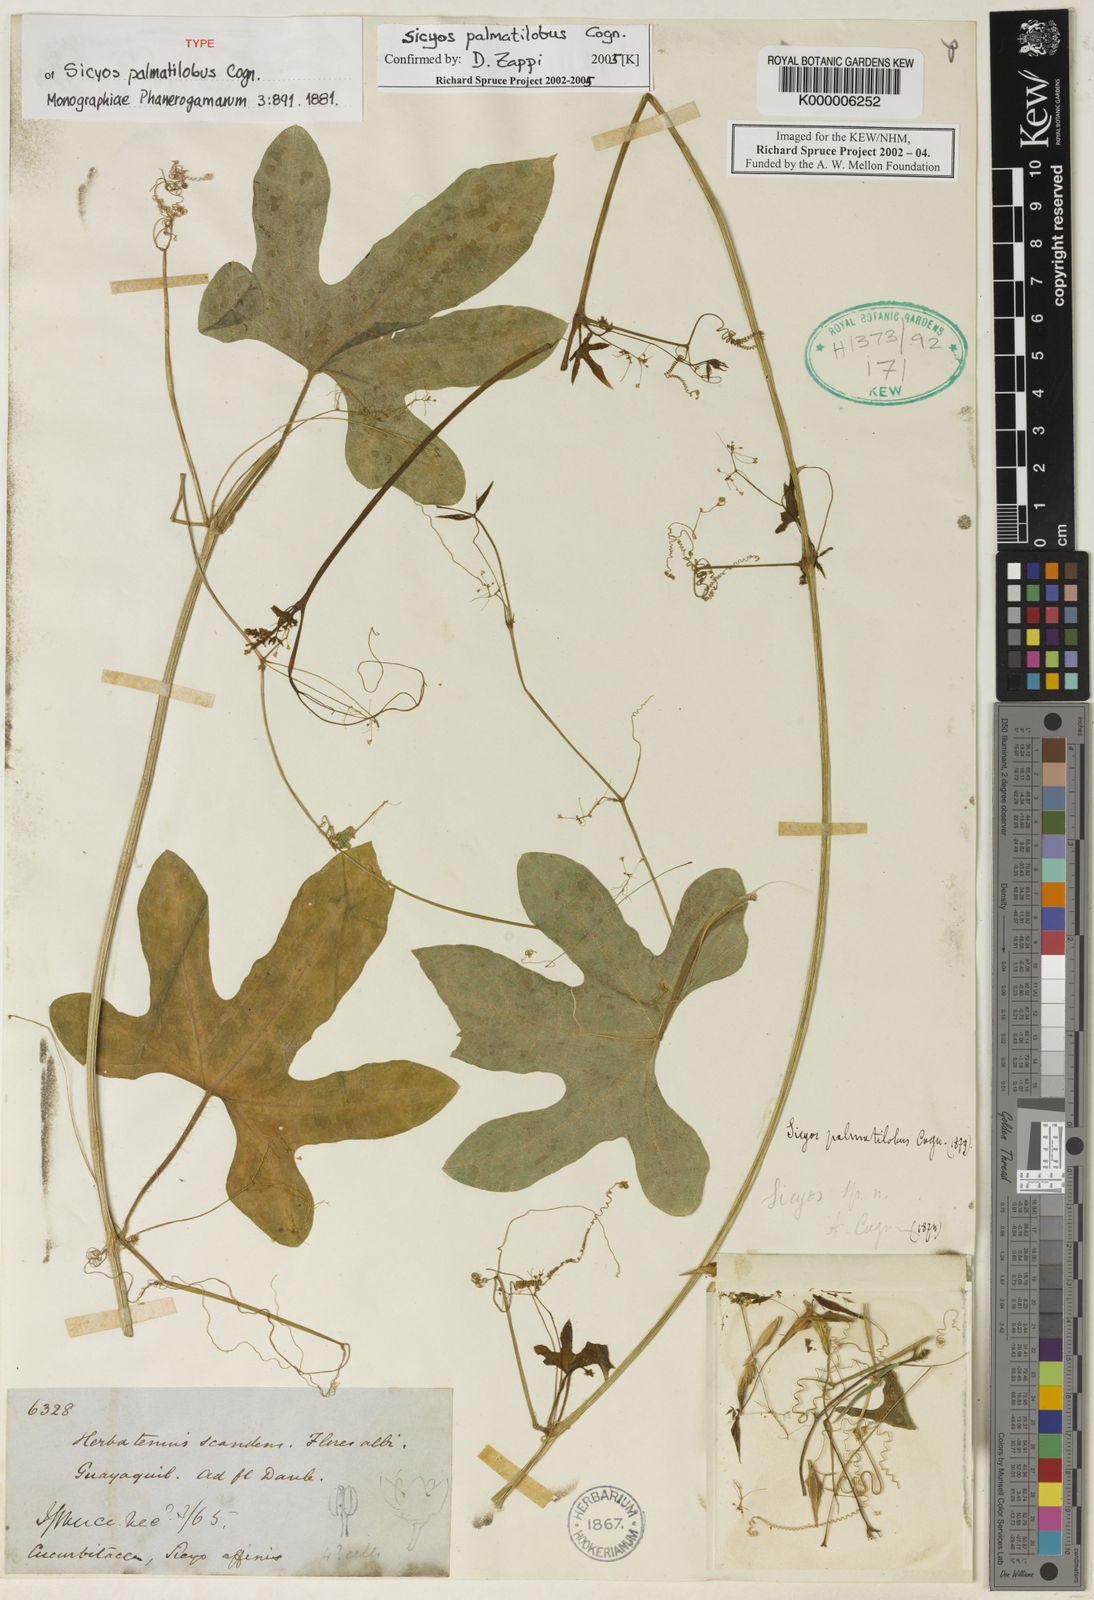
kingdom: Plantae
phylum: Tracheophyta
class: Magnoliopsida
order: Cucurbitales
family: Cucurbitaceae
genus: Sicyos
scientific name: Sicyos palmatilobus
